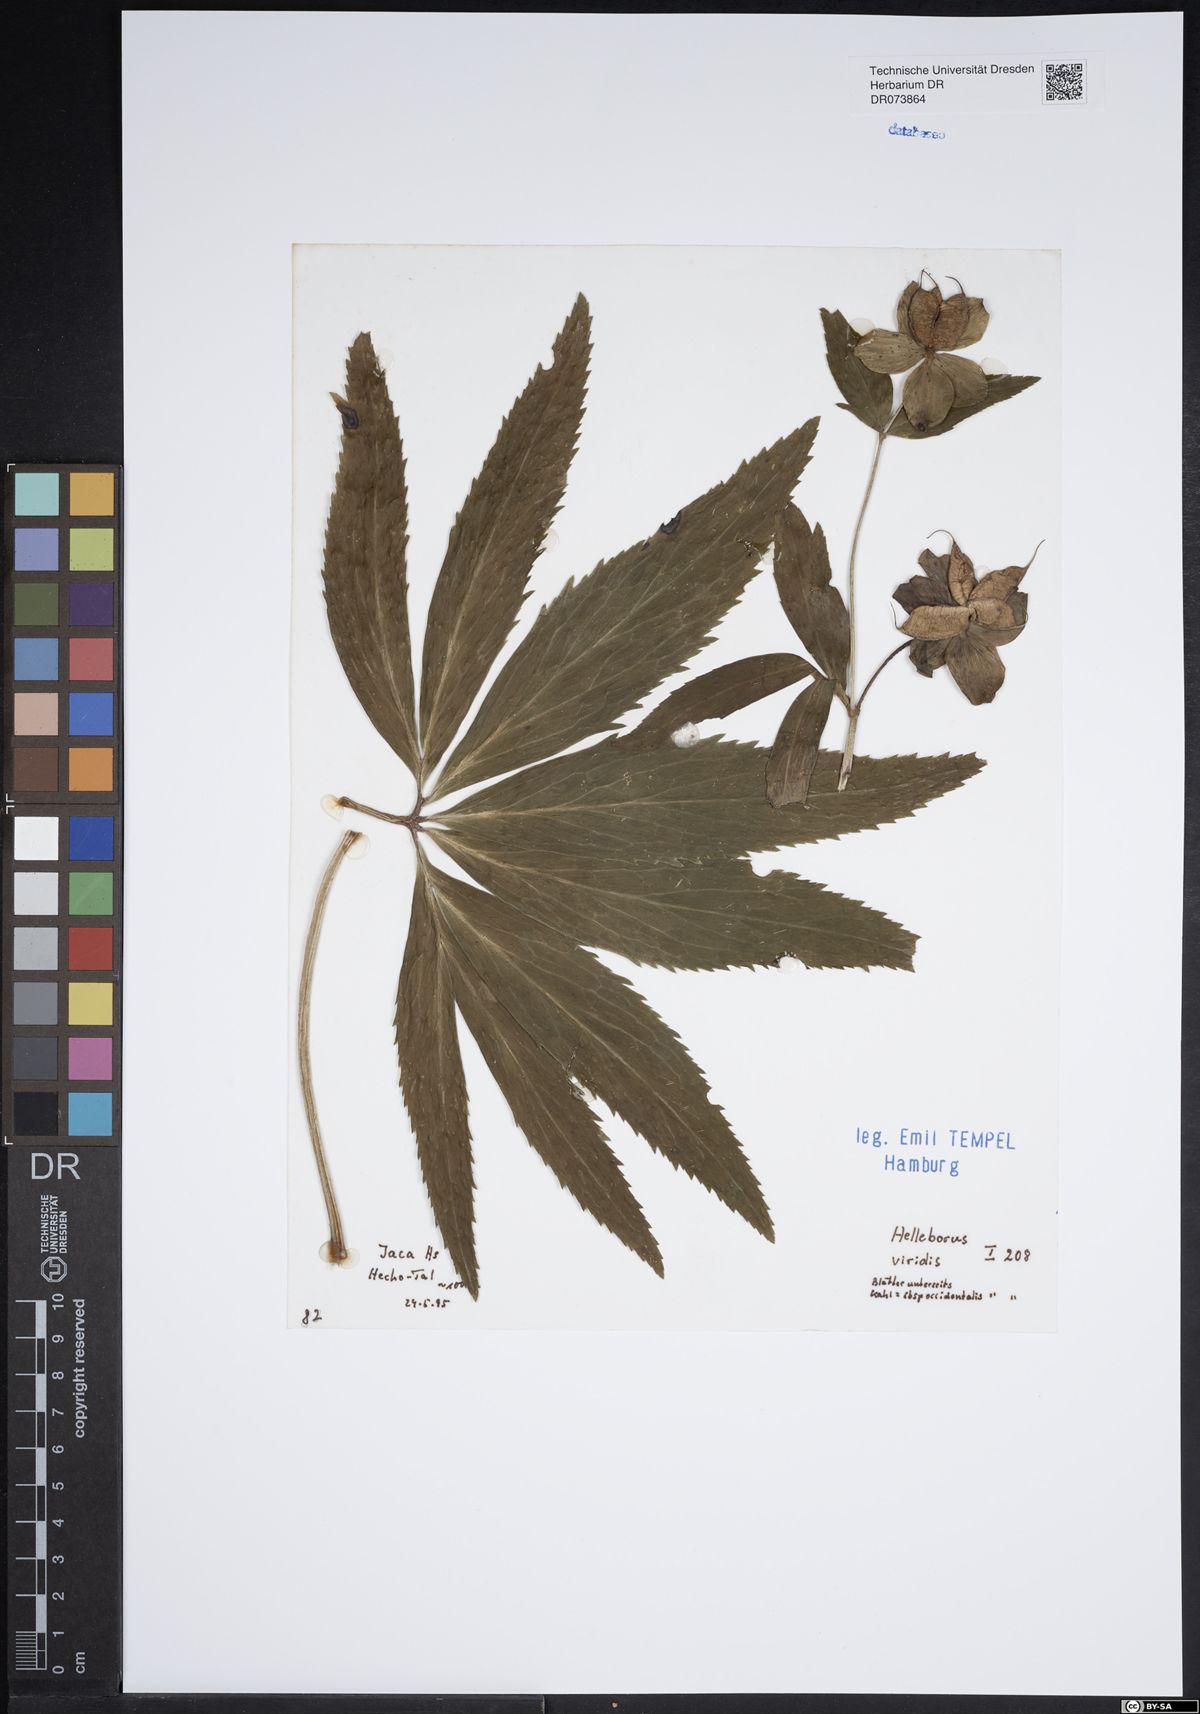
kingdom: Plantae
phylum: Tracheophyta
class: Magnoliopsida
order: Ranunculales
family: Ranunculaceae
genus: Helleborus
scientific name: Helleborus viridis
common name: Green hellebore
